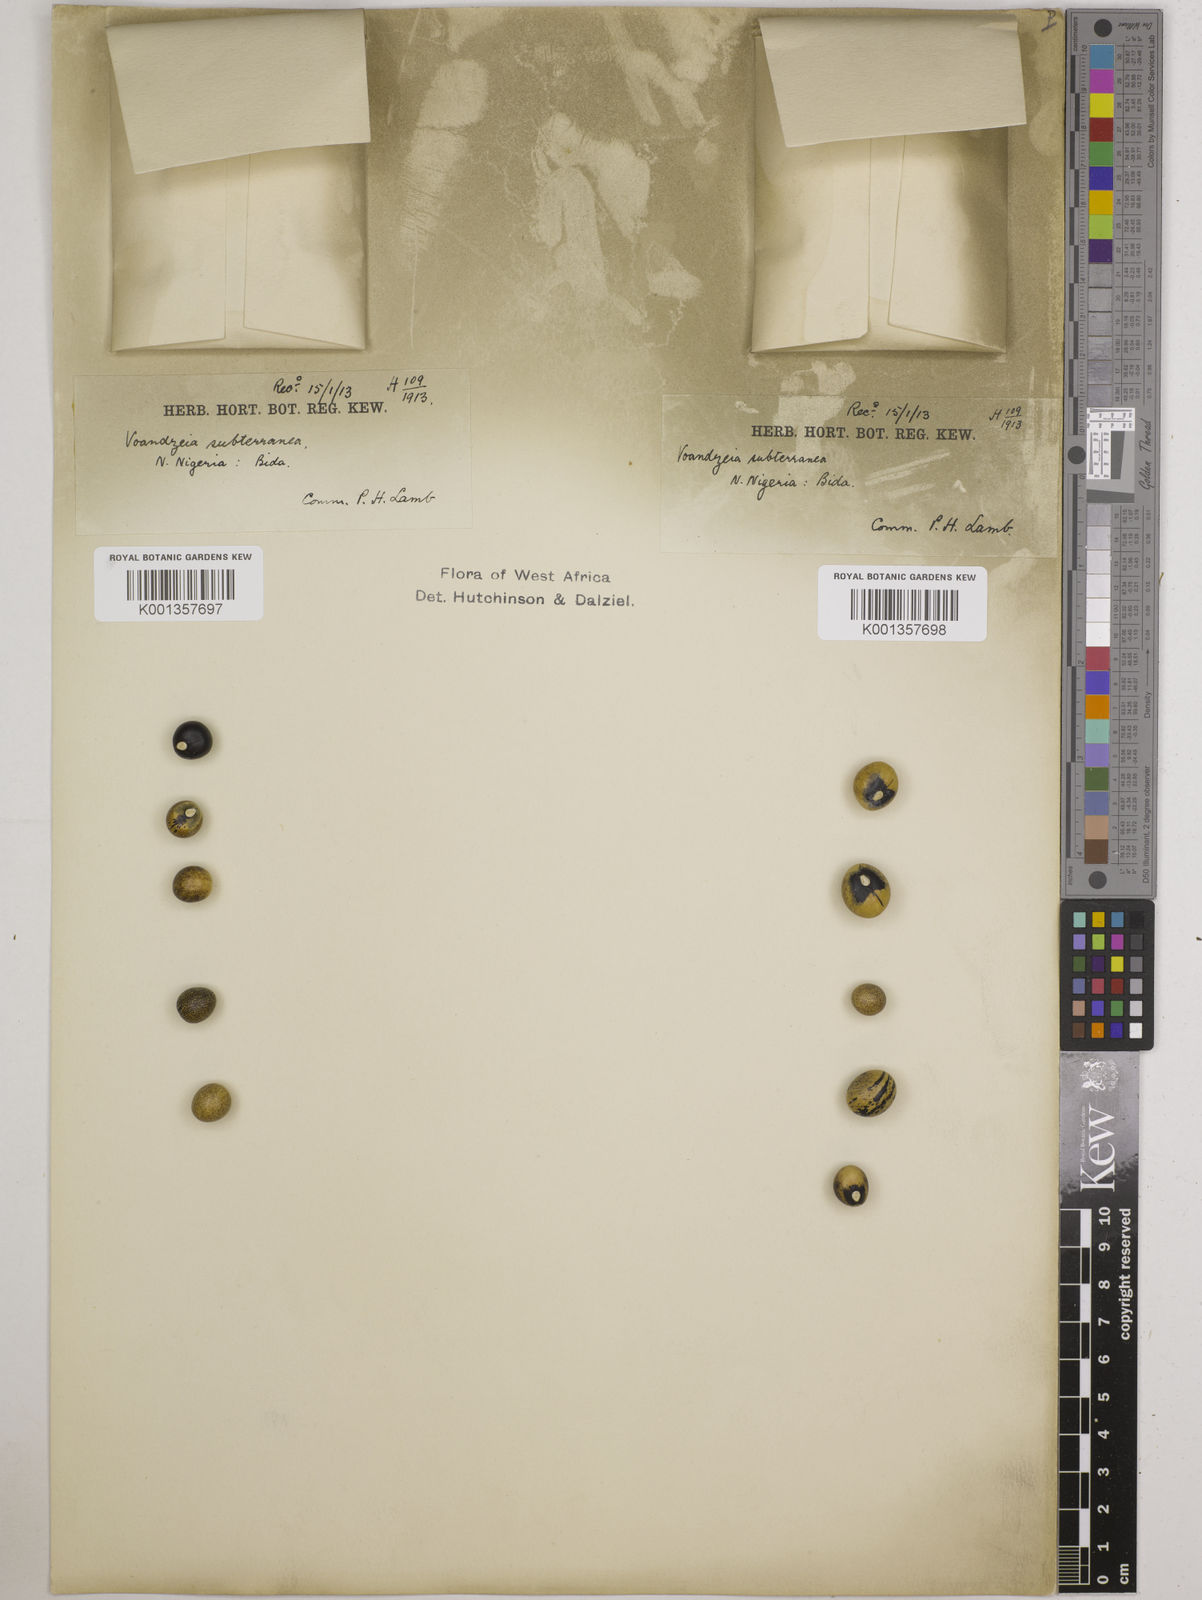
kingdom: Plantae
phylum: Tracheophyta
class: Magnoliopsida
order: Fabales
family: Fabaceae
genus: Vigna
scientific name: Vigna
